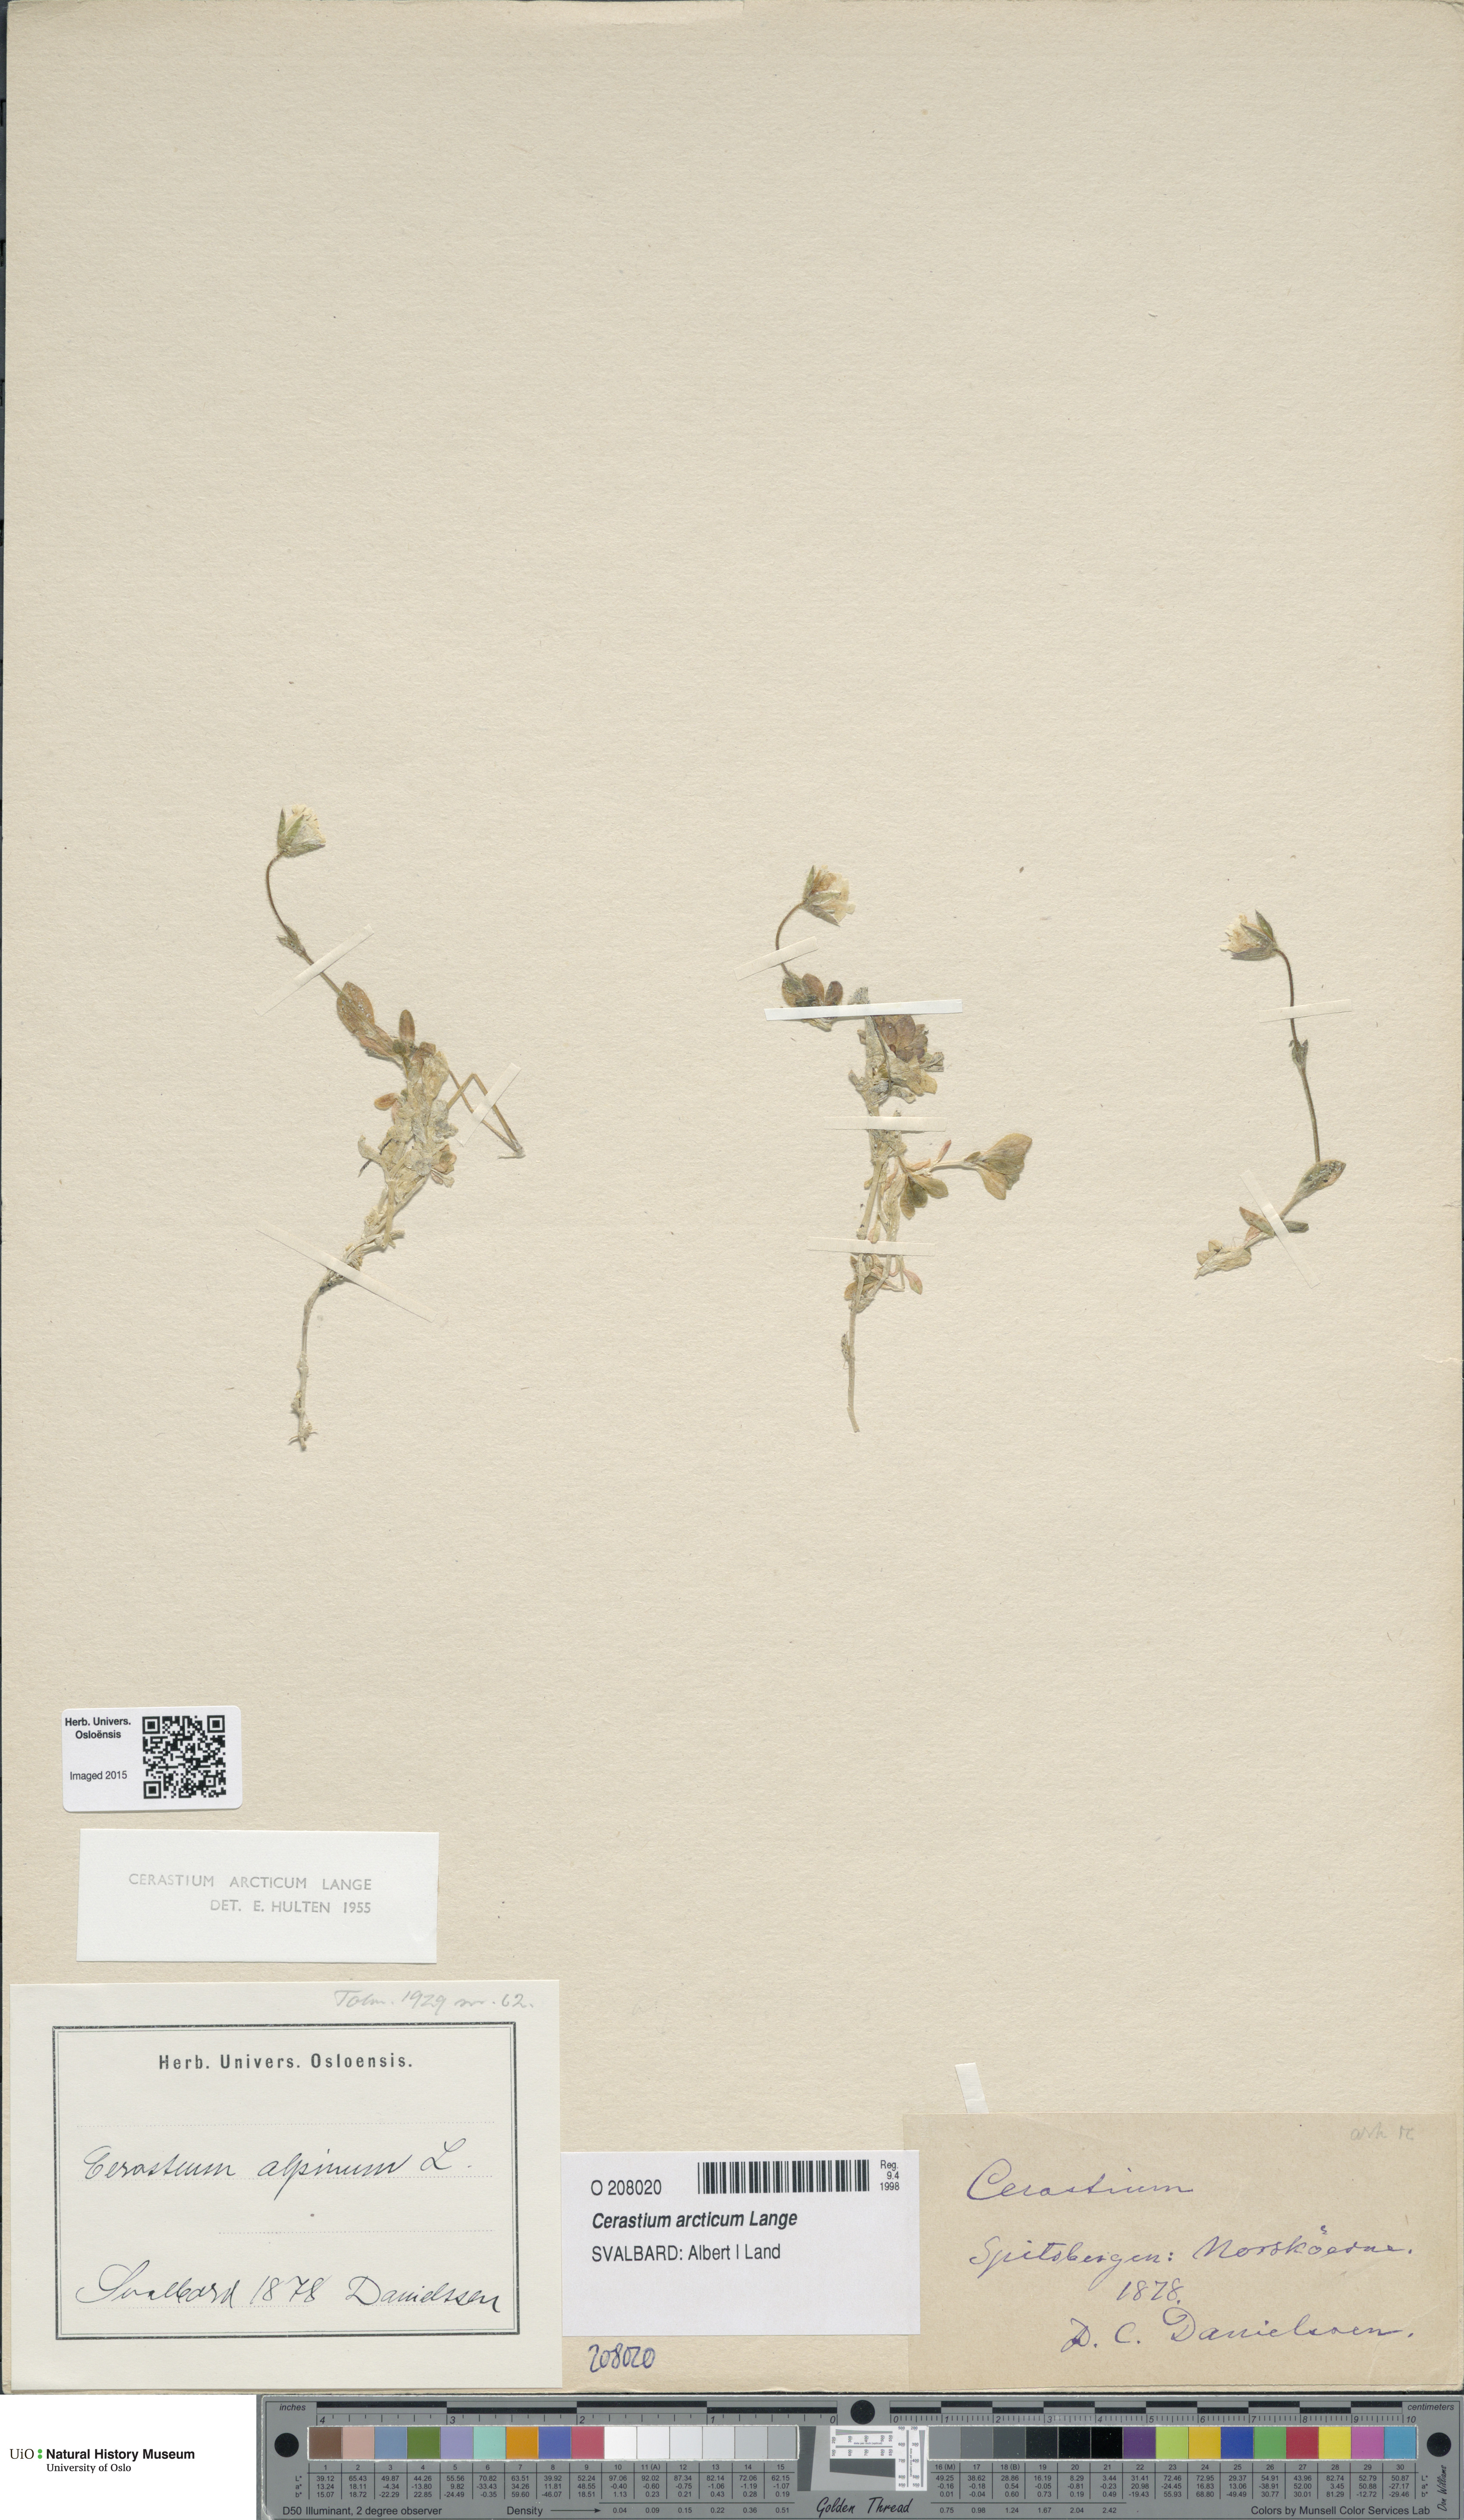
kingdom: Plantae
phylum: Tracheophyta
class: Magnoliopsida
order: Caryophyllales
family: Caryophyllaceae
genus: Cerastium
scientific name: Cerastium arcticum
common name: Arctic mouse-ear
